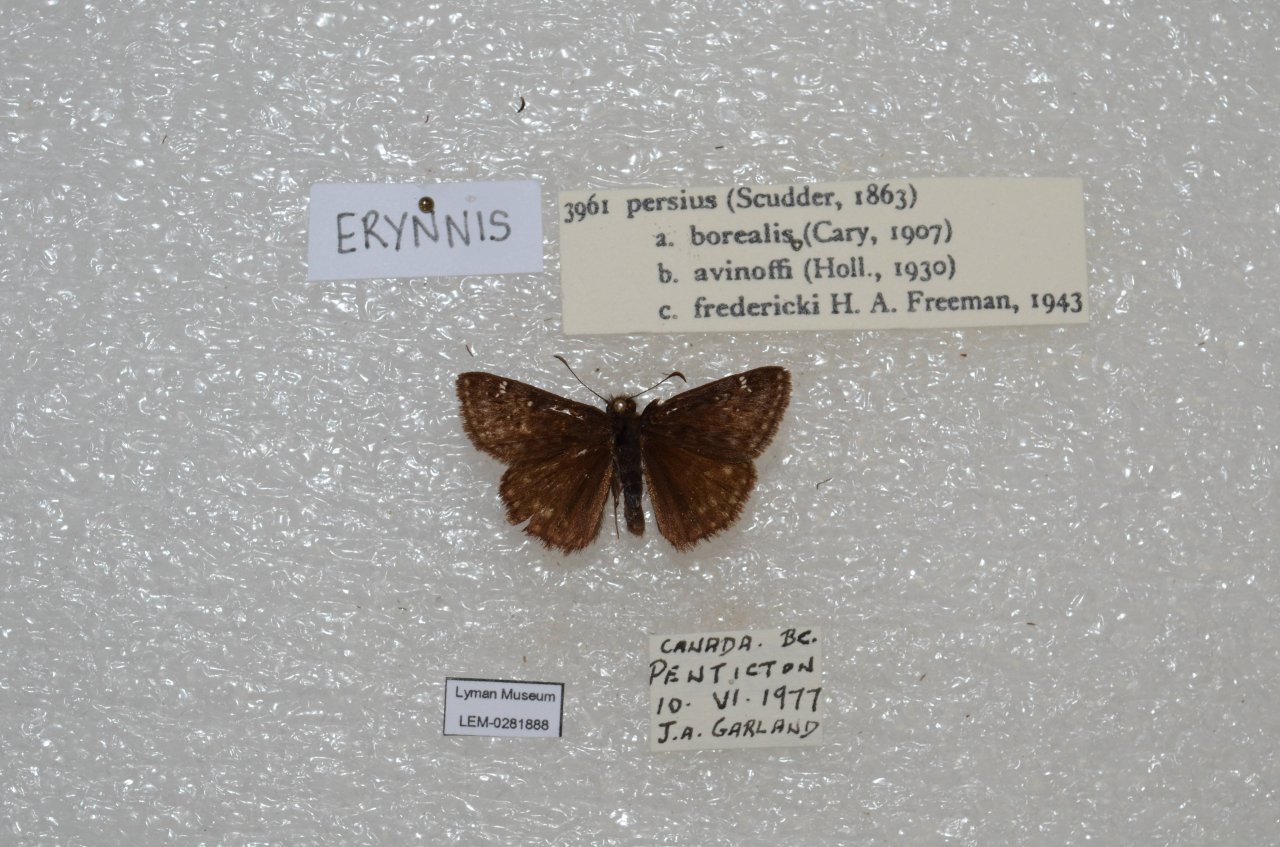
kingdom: Animalia
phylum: Arthropoda
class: Insecta
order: Lepidoptera
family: Hesperiidae
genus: Gesta
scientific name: Gesta
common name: Persius Duskywing
